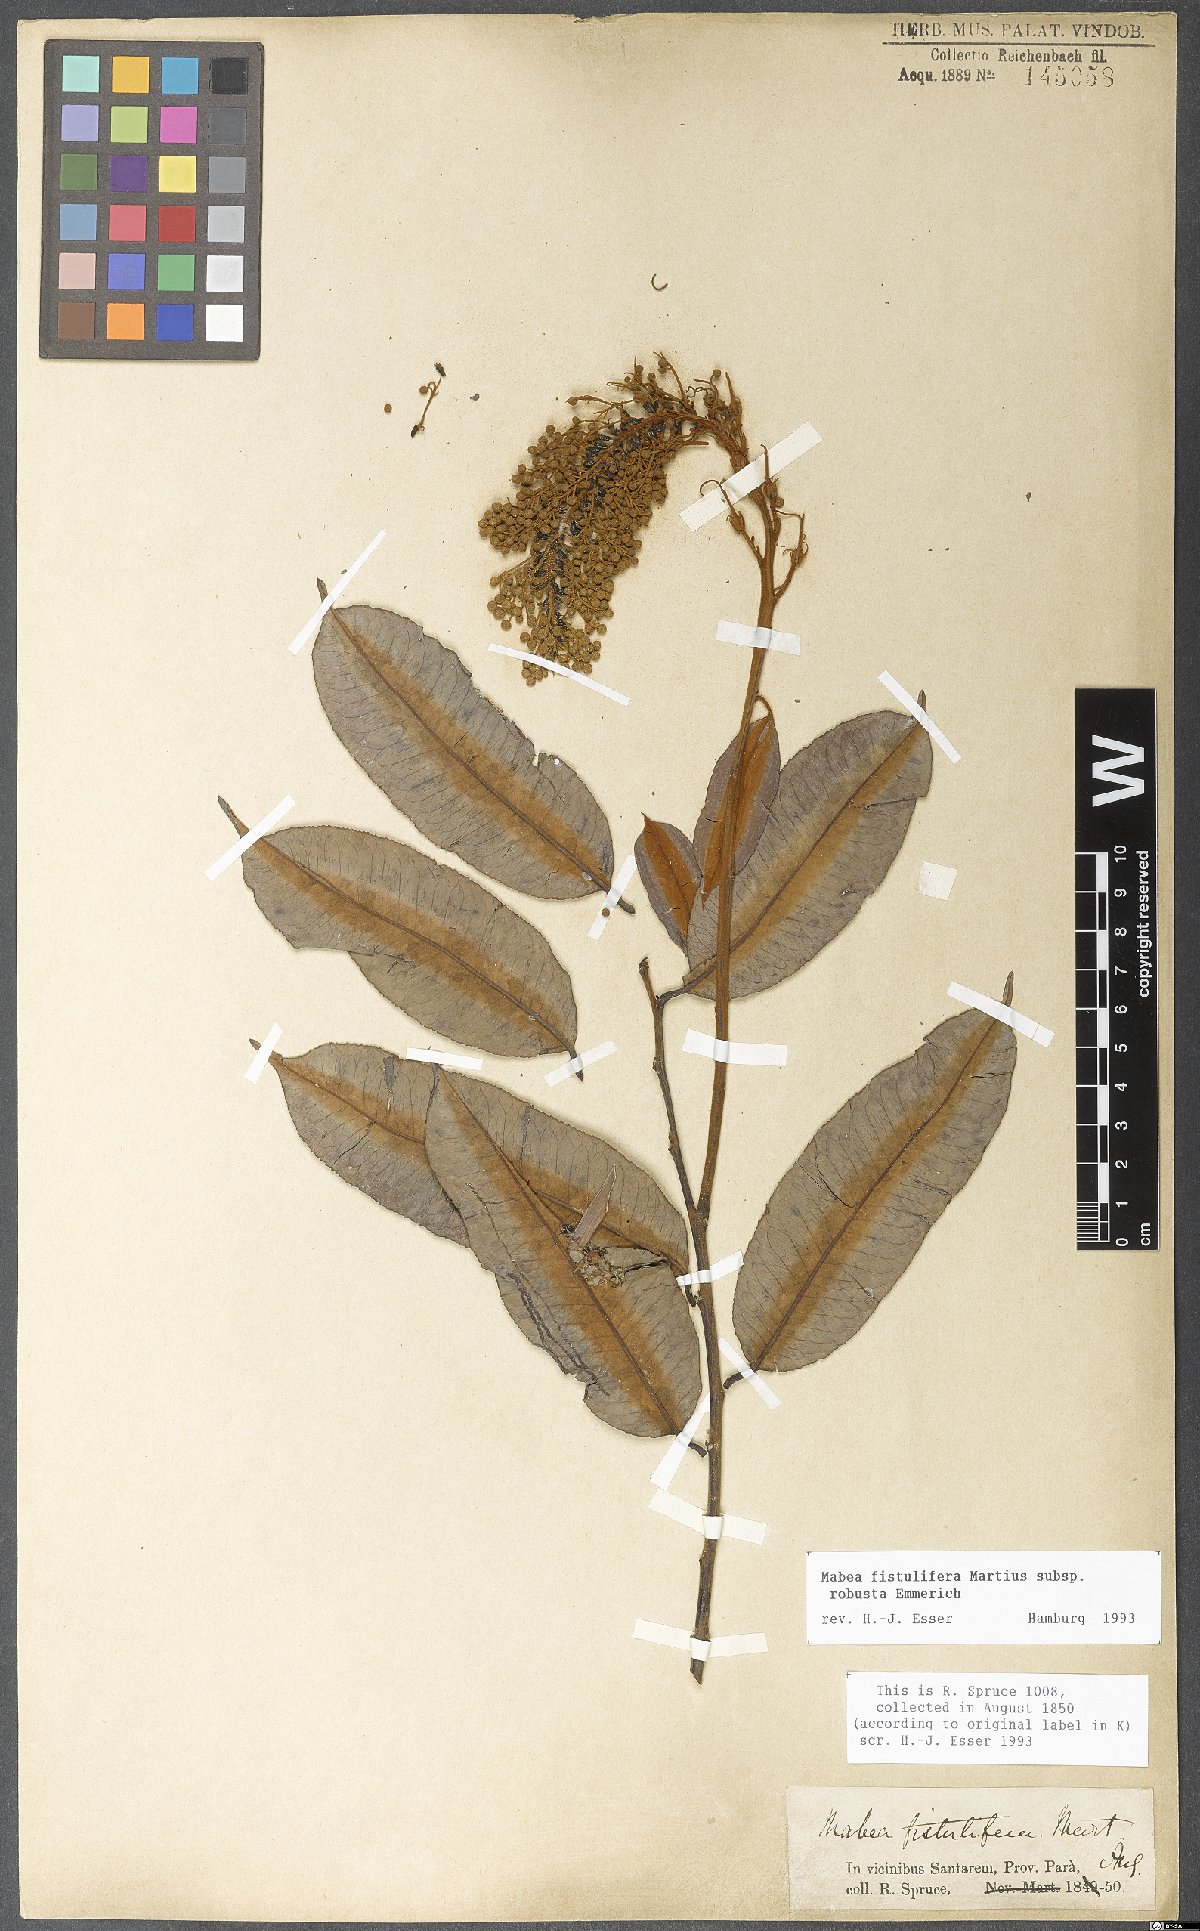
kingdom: Plantae
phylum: Tracheophyta
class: Magnoliopsida
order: Malpighiales
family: Euphorbiaceae
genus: Mabea
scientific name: Mabea fistulifera
